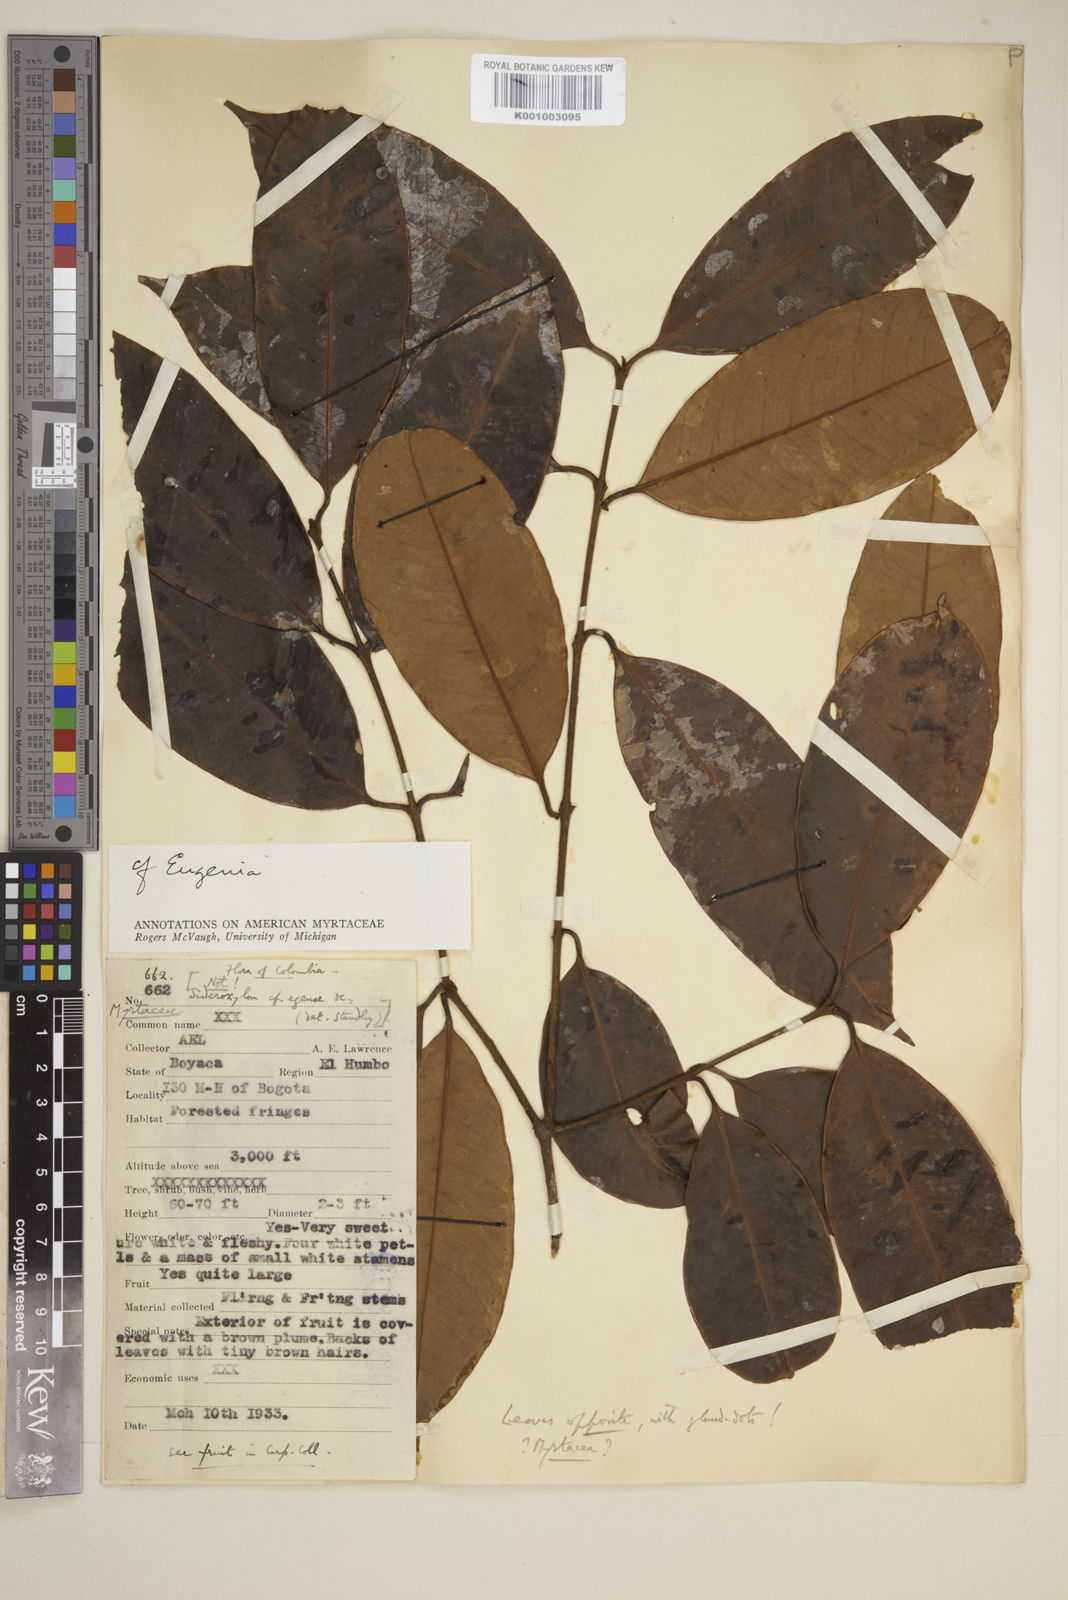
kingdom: Plantae
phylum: Tracheophyta
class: Magnoliopsida
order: Myrtales
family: Myrtaceae
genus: Eugenia
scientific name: Eugenia
